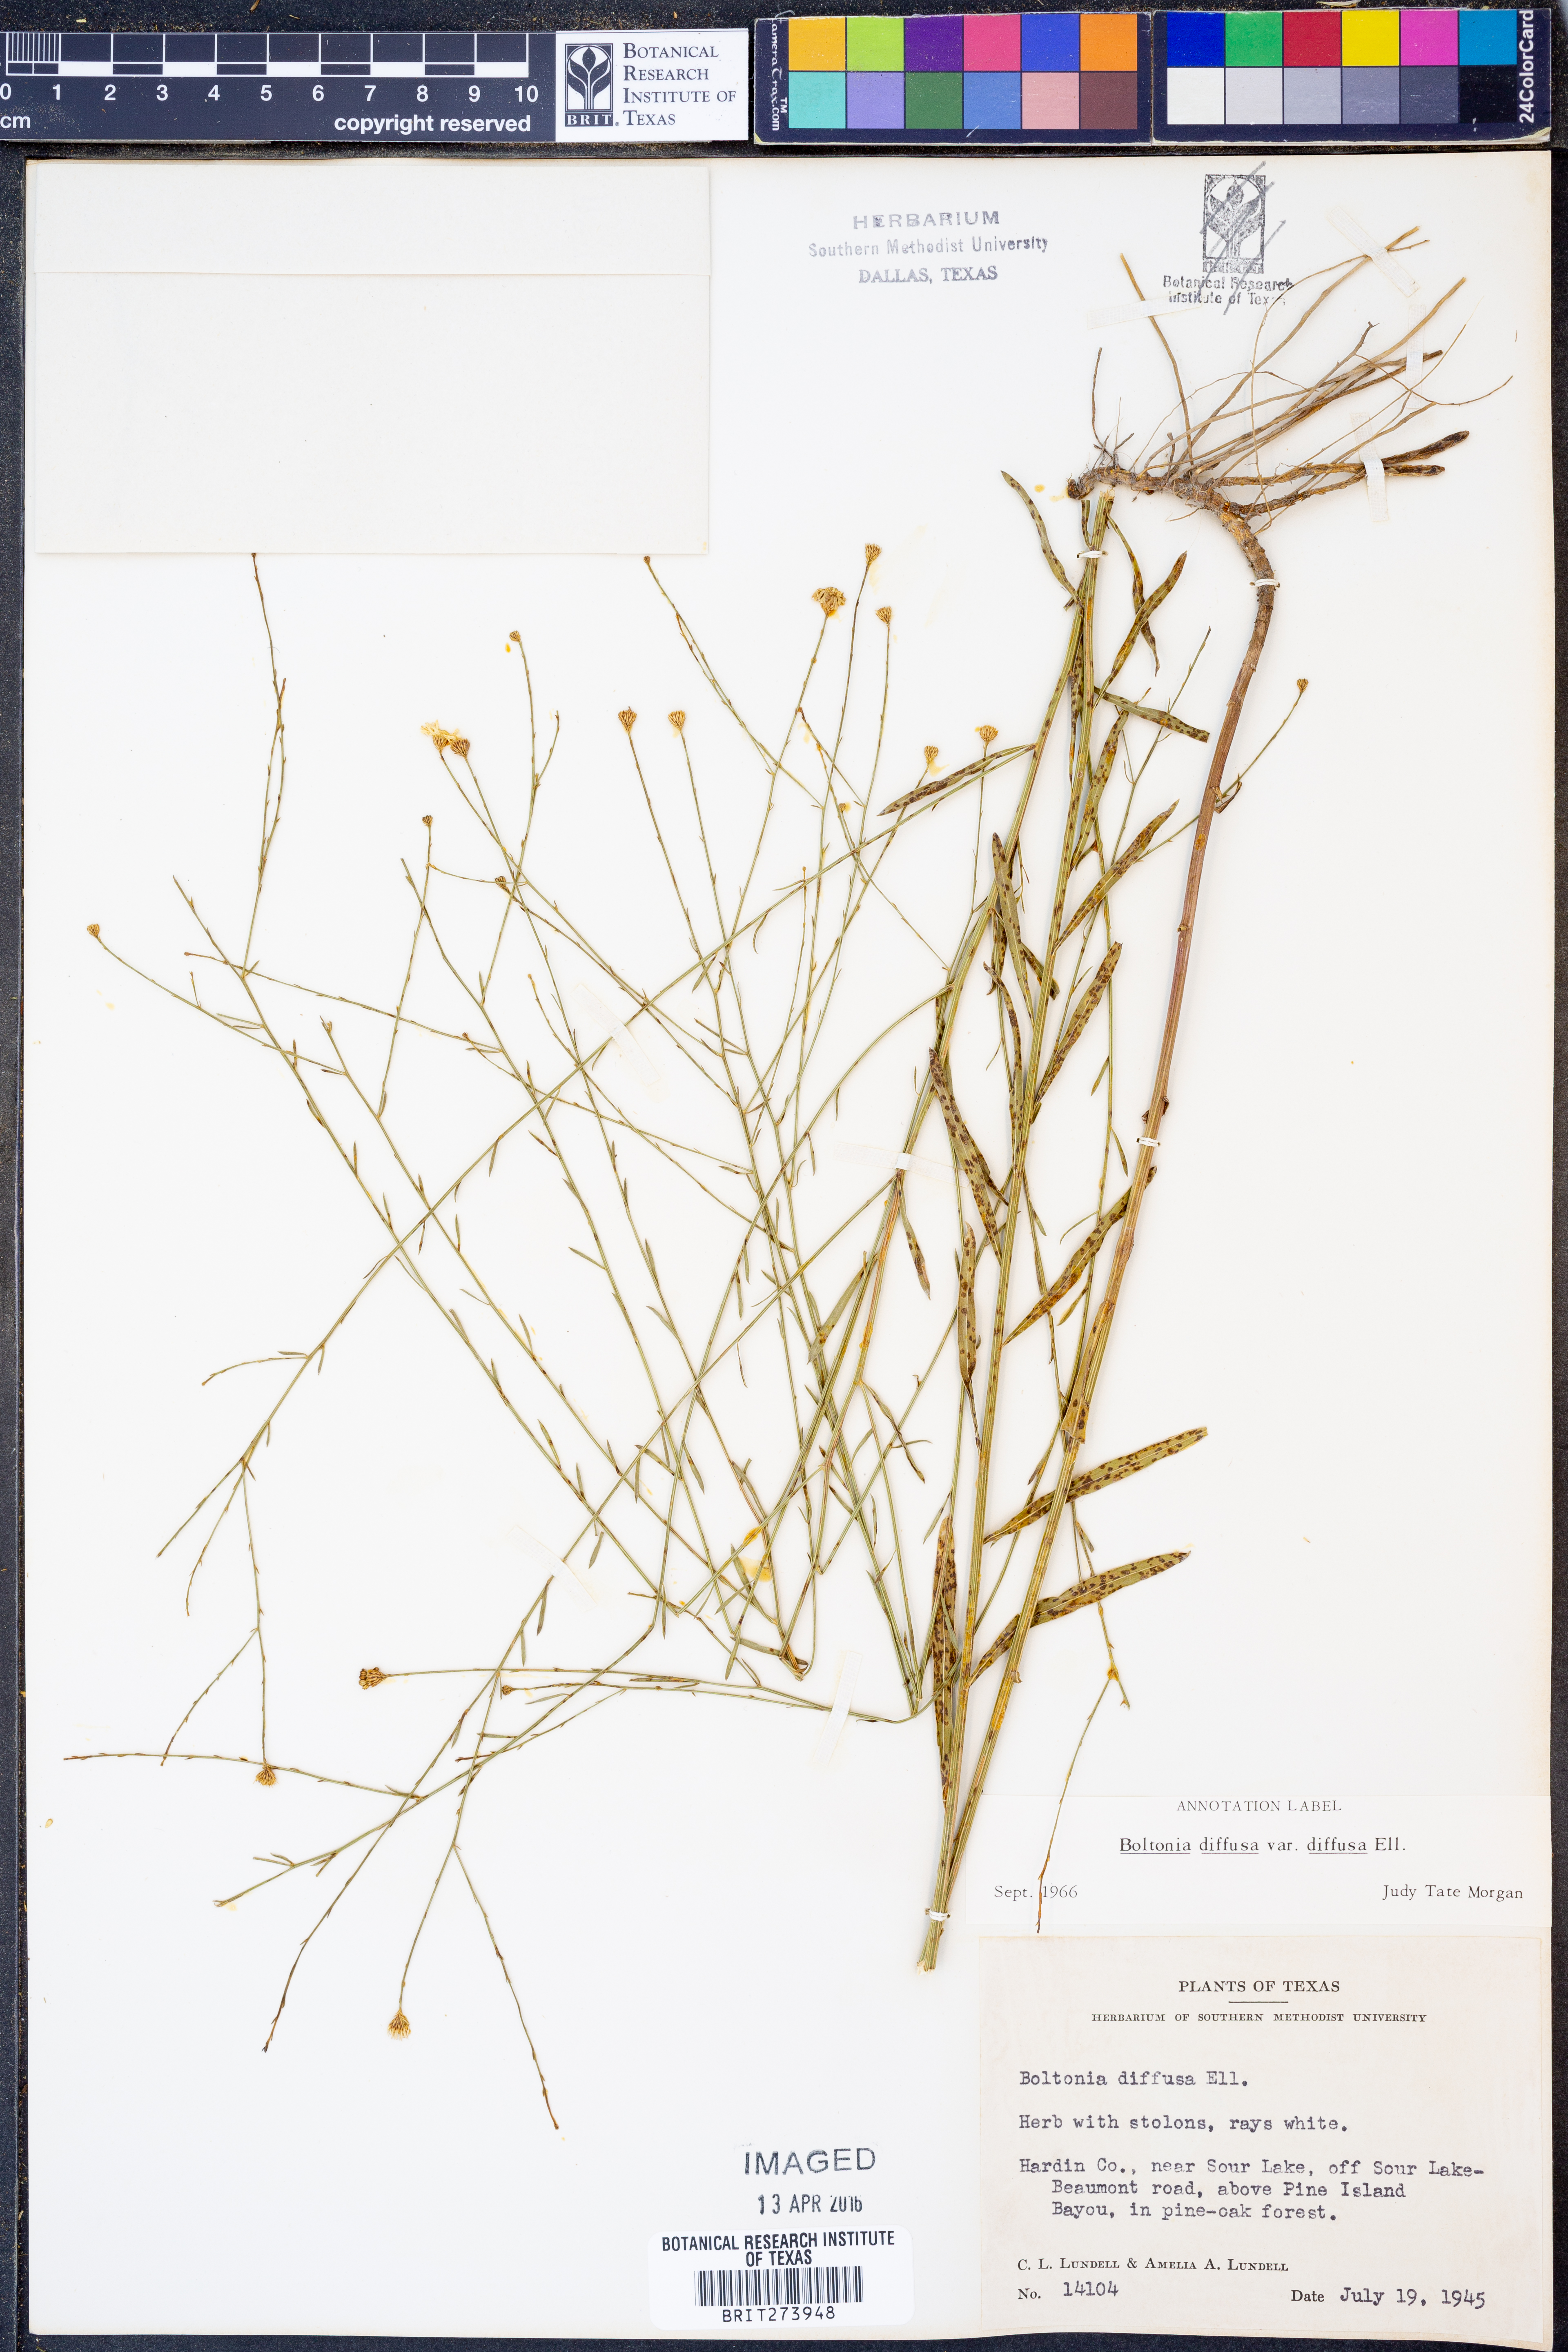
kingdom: Plantae
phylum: Tracheophyta
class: Magnoliopsida
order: Asterales
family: Asteraceae
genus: Boltonia
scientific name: Boltonia diffusa
